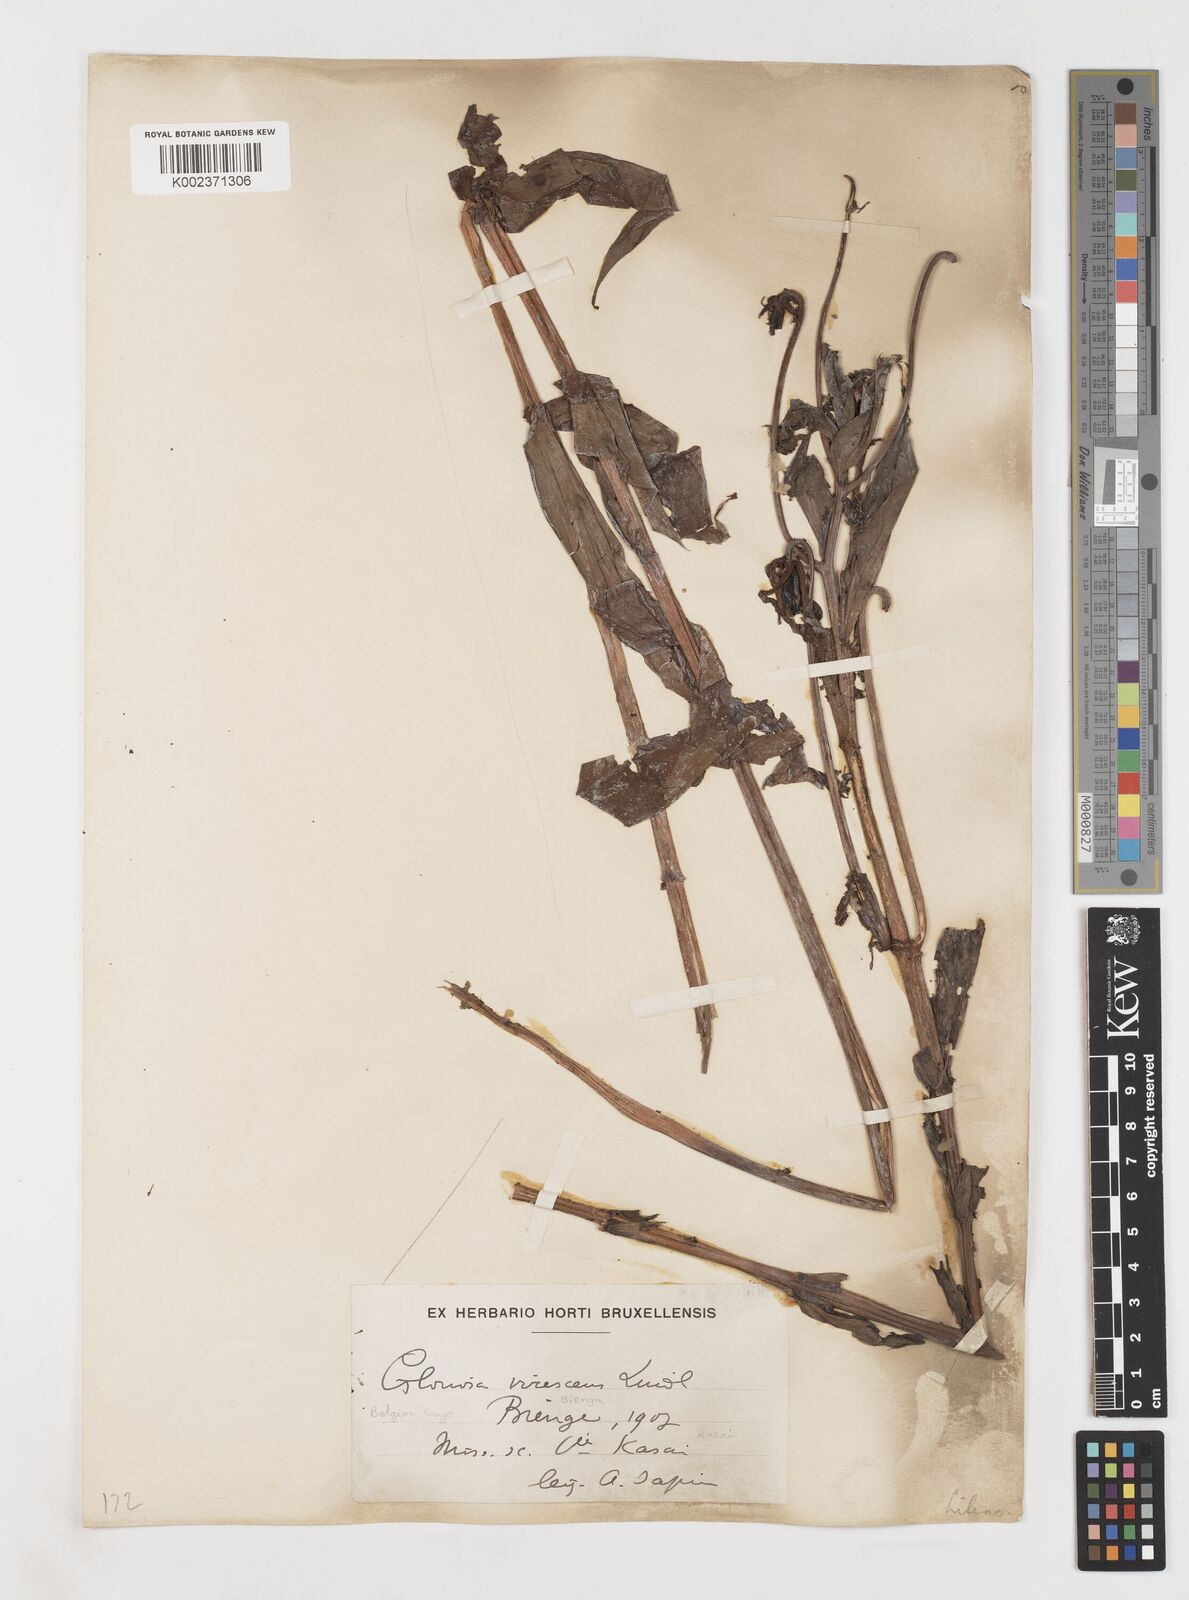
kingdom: Plantae
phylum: Tracheophyta
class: Liliopsida
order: Liliales
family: Colchicaceae
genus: Gloriosa
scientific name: Gloriosa simplex
